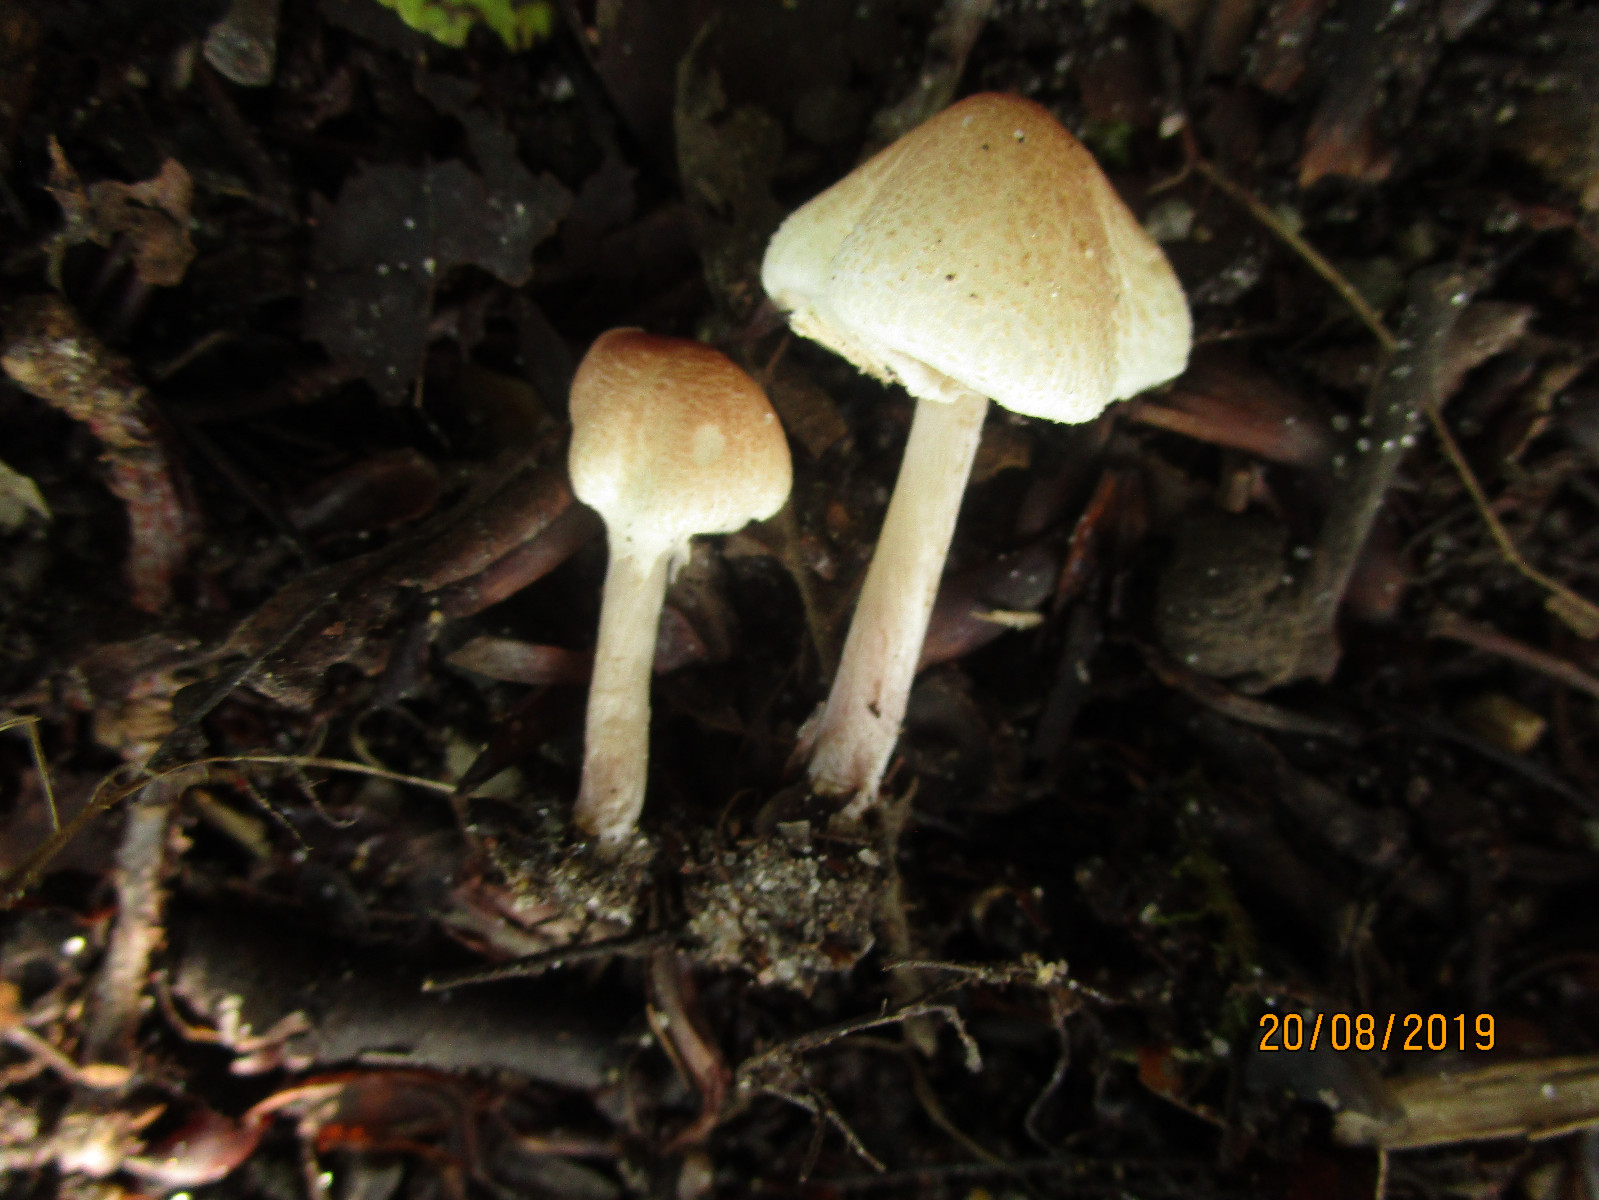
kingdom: Fungi
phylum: Basidiomycota
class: Agaricomycetes
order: Agaricales
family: Agaricaceae
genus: Lepiota
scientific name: Lepiota
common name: parasolhat
